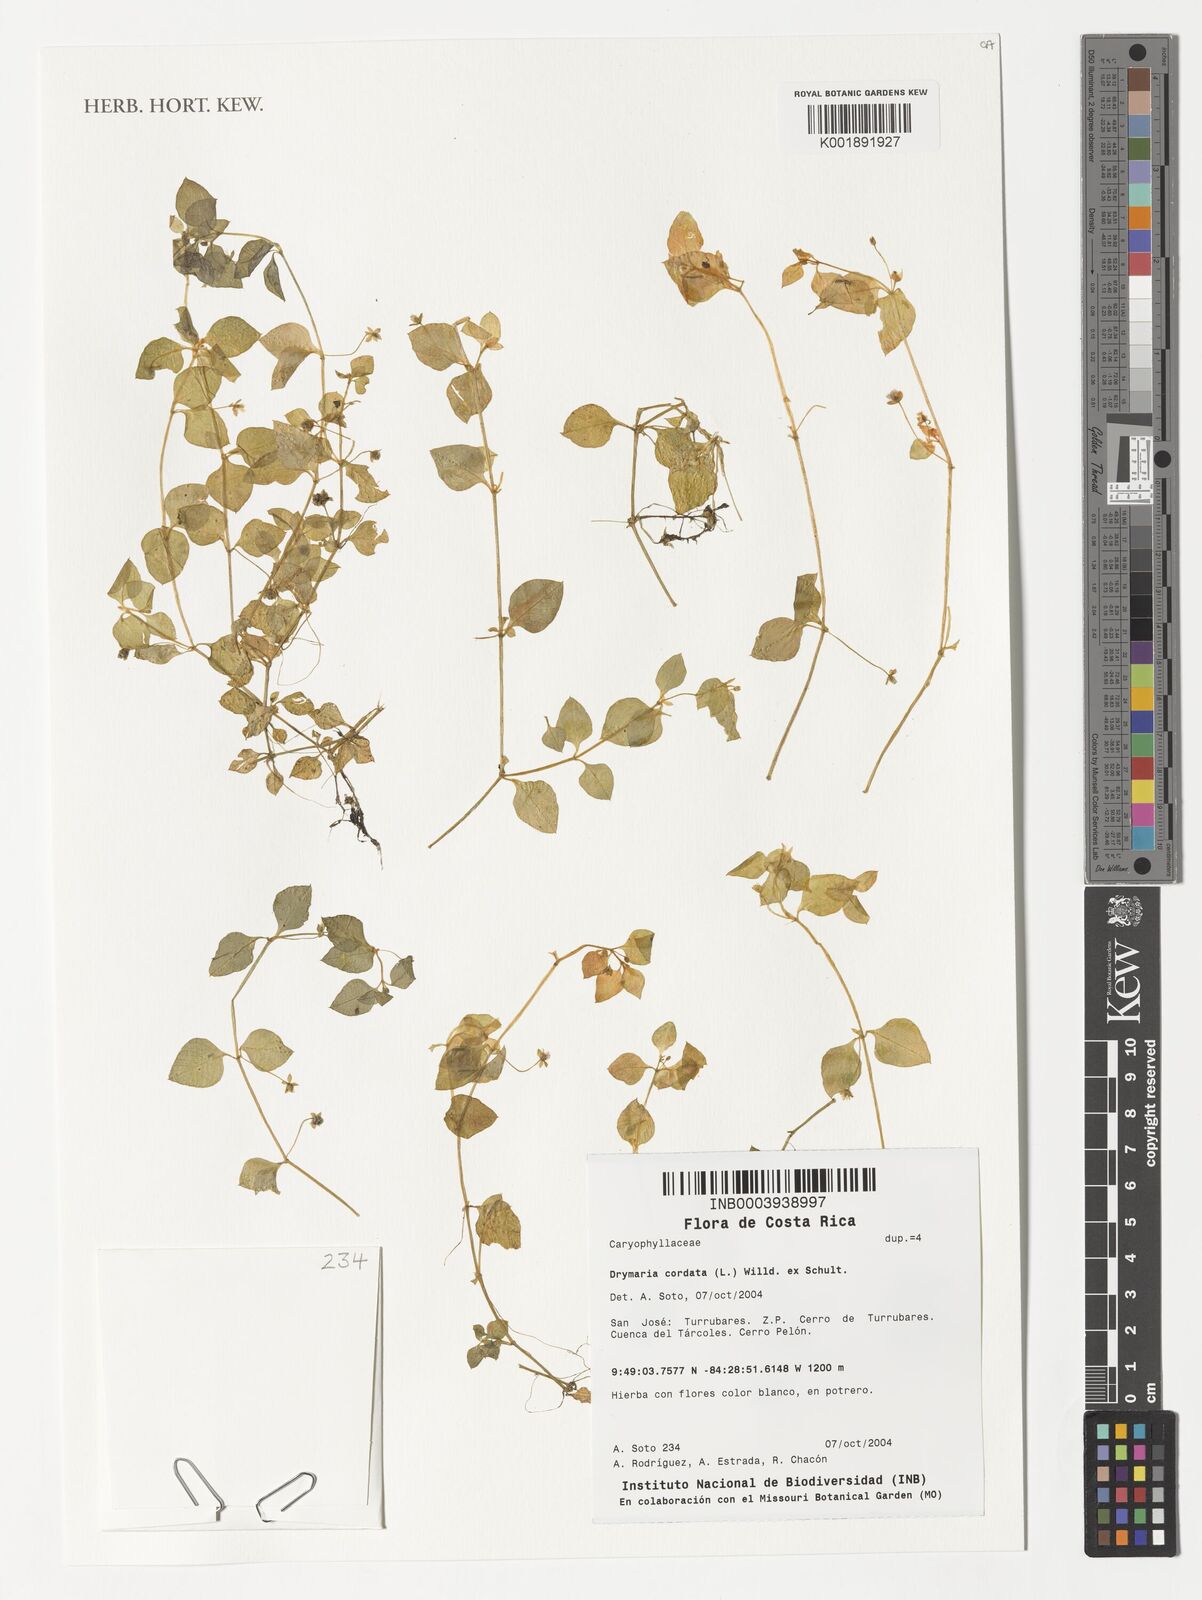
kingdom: Plantae
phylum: Tracheophyta
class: Magnoliopsida
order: Caryophyllales
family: Caryophyllaceae
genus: Drymaria
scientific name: Drymaria cordata
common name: Whitesnow
